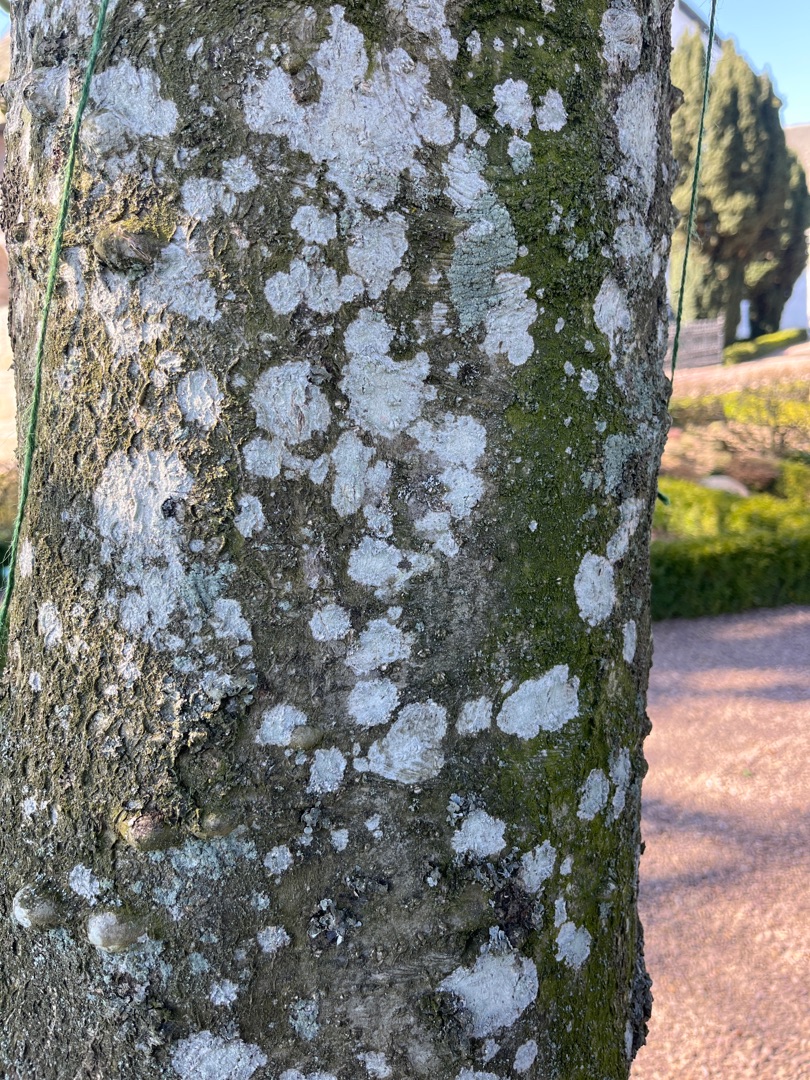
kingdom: Fungi
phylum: Ascomycota
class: Lecanoromycetes
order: Ostropales
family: Phlyctidaceae
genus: Phlyctis
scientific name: Phlyctis argena
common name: Almindelig sølvlav
